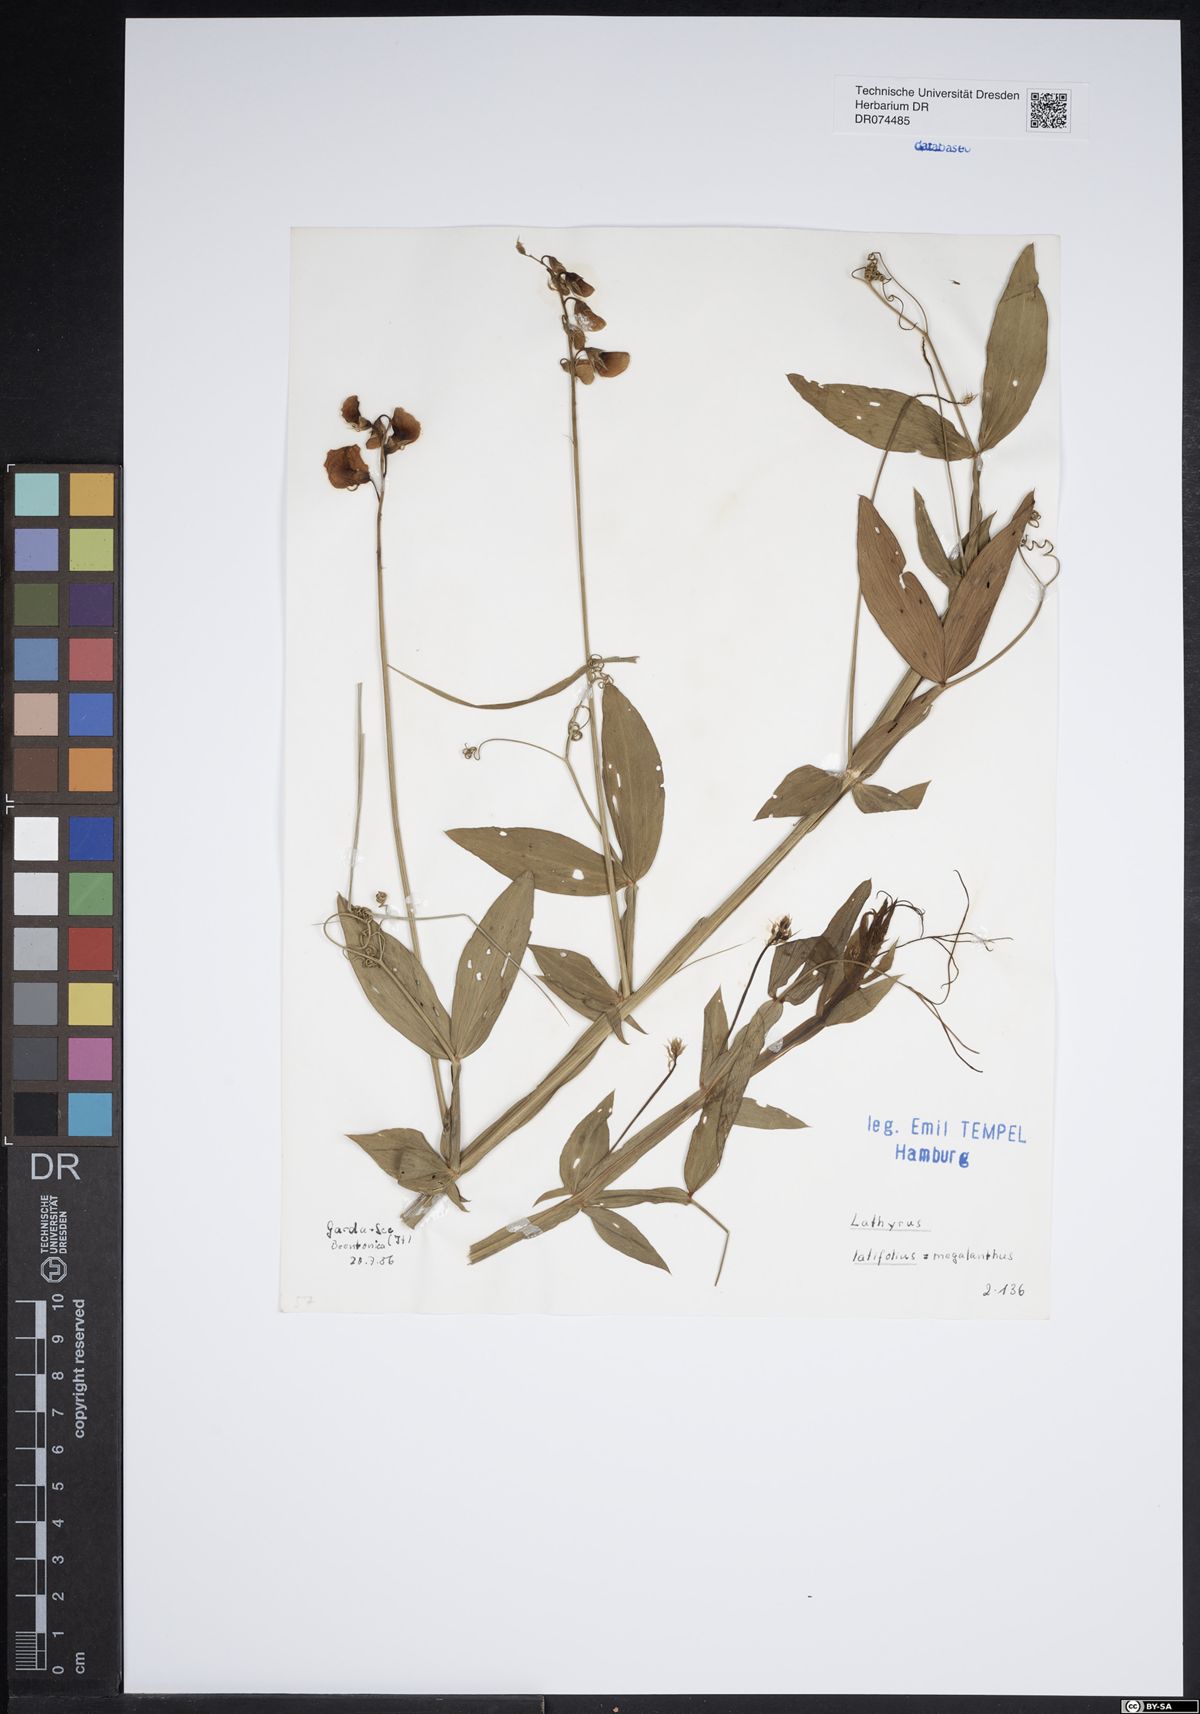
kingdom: Plantae
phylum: Tracheophyta
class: Magnoliopsida
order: Fabales
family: Fabaceae
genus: Lathyrus
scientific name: Lathyrus latifolius
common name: Perennial pea
